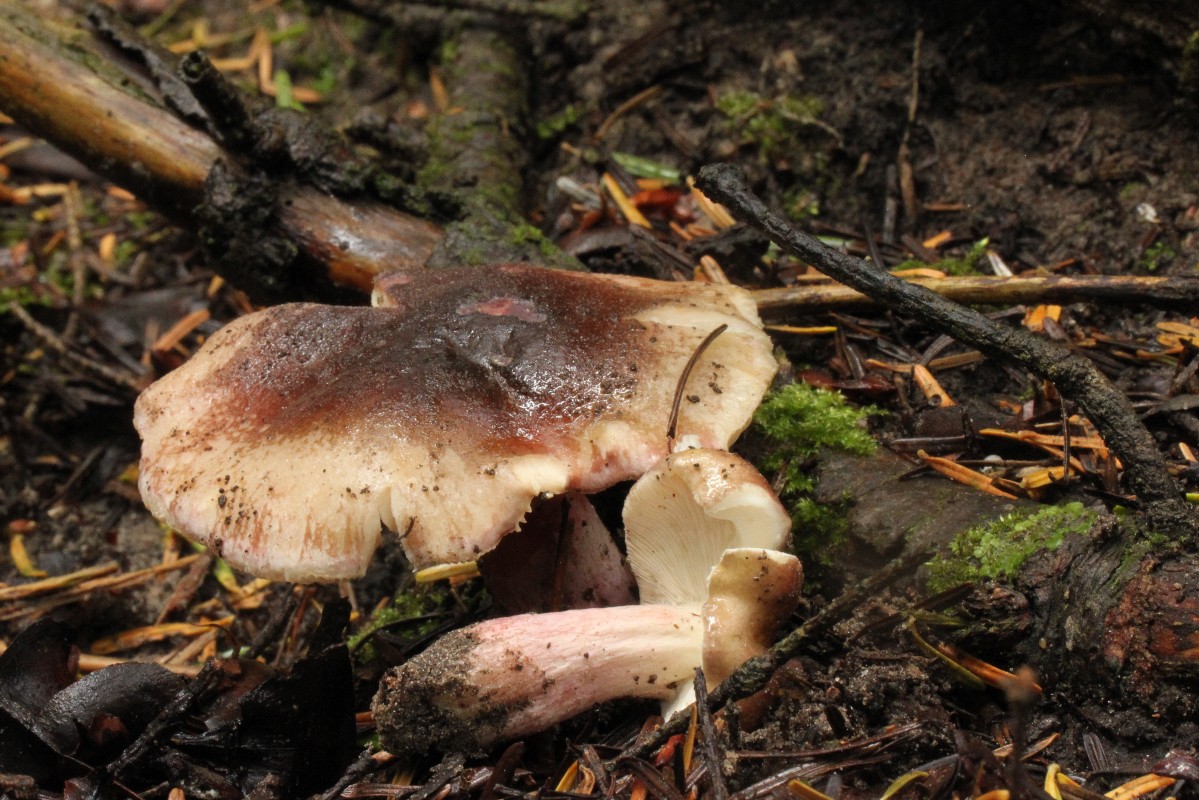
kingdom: Fungi
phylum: Basidiomycota
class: Agaricomycetes
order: Russulales
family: Russulaceae
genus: Russula
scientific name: Russula queletii
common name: Quélets skørhat
